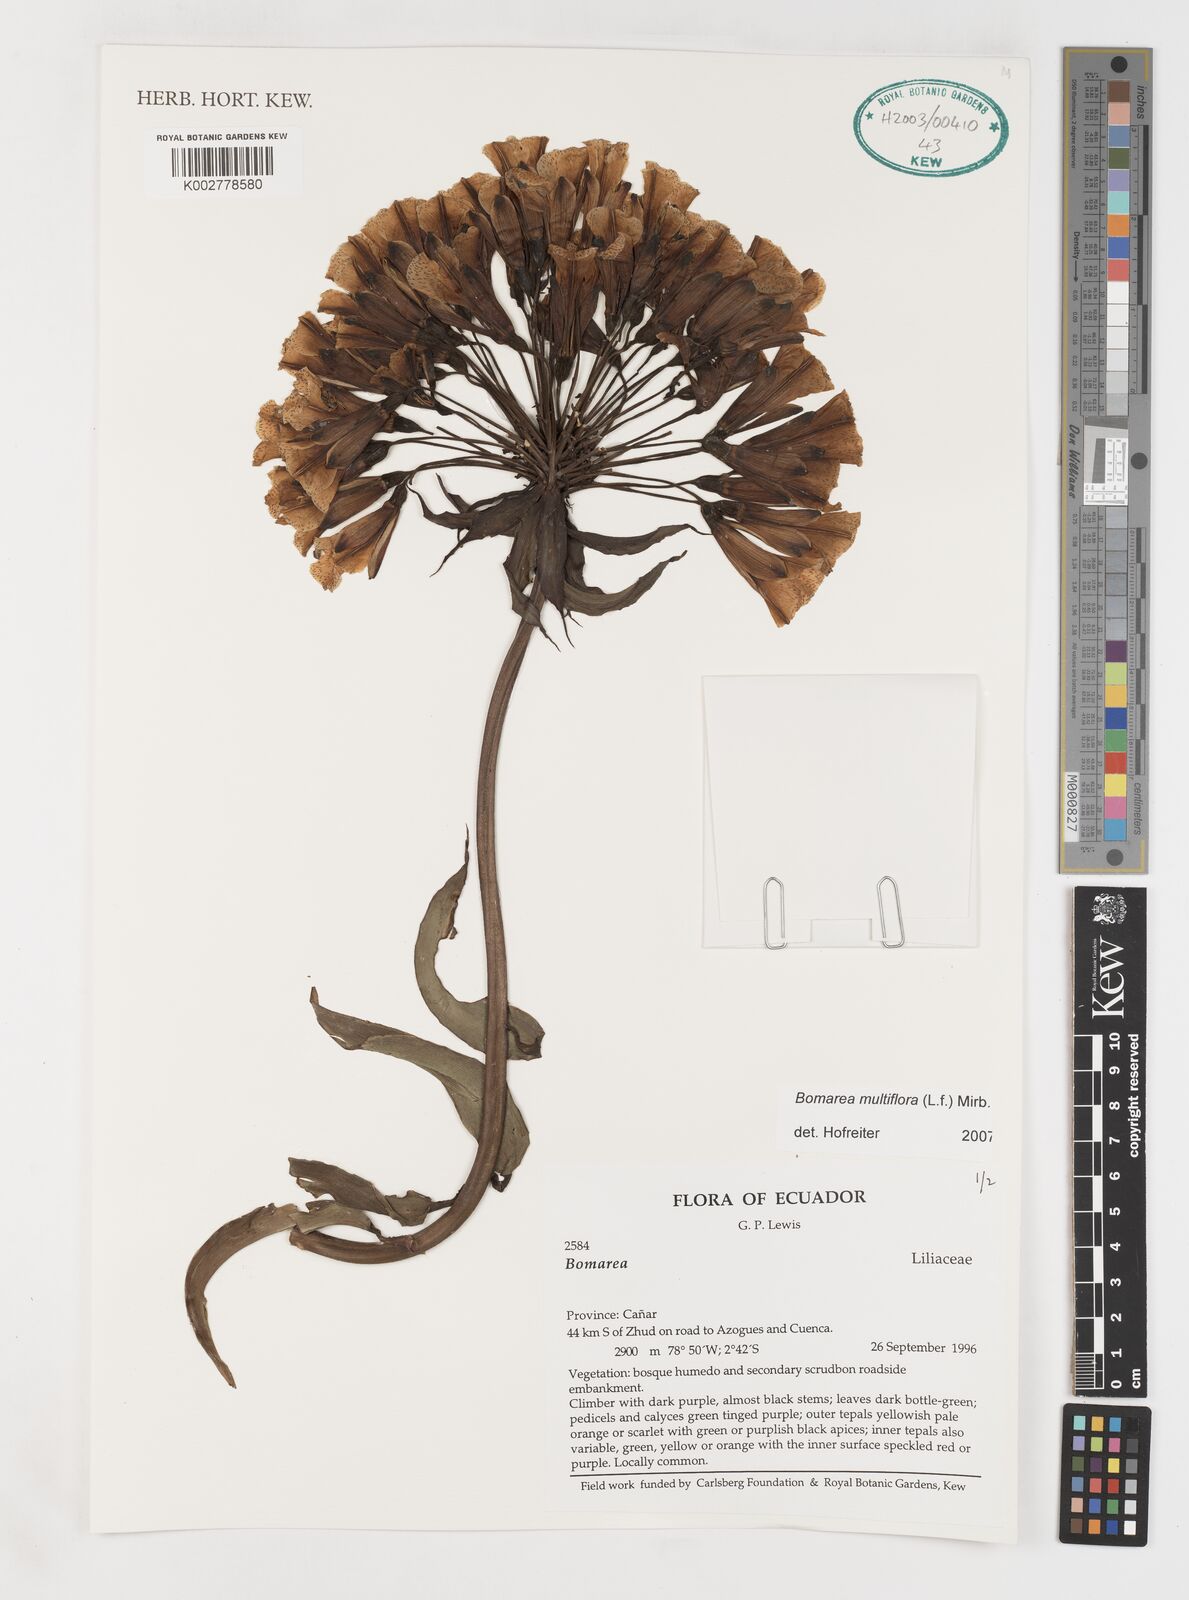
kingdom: Plantae
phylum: Tracheophyta
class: Liliopsida
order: Liliales
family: Alstroemeriaceae
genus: Bomarea
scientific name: Bomarea multiflora
